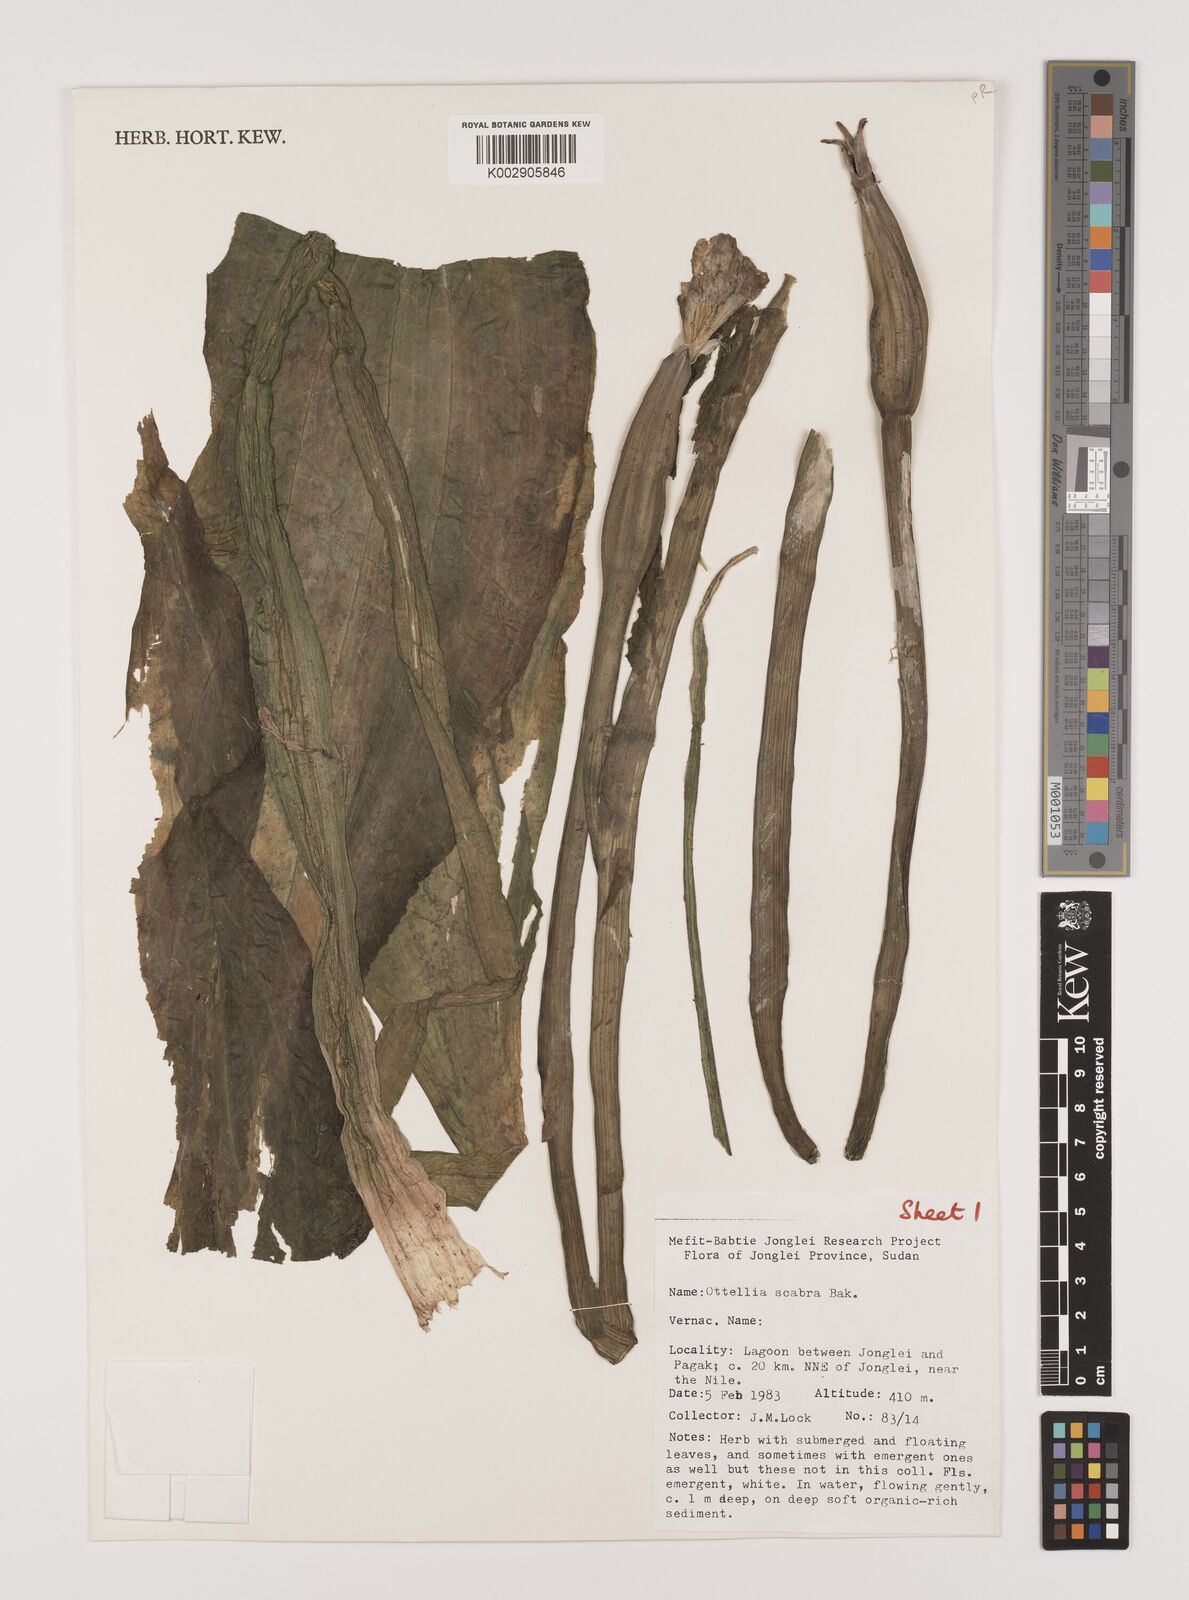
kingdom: Plantae
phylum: Tracheophyta
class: Liliopsida
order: Alismatales
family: Hydrocharitaceae
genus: Ottelia
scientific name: Ottelia scabra
